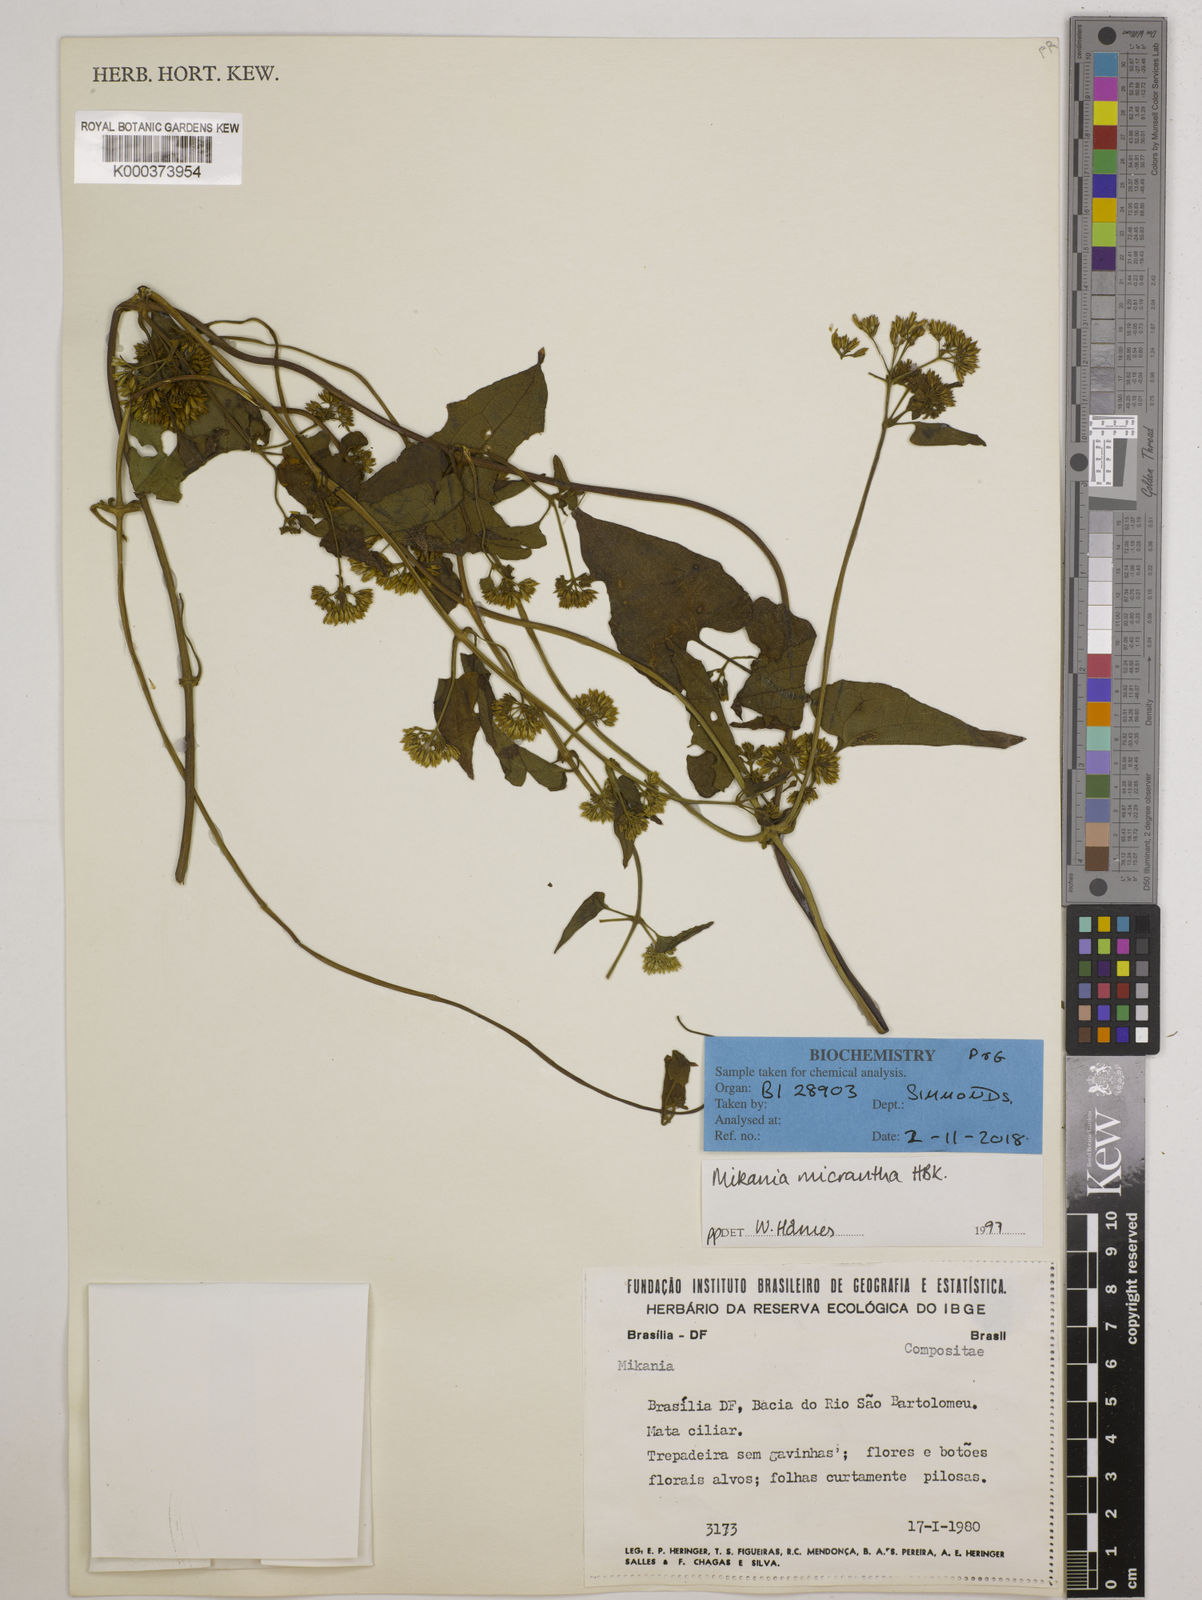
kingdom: Plantae
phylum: Tracheophyta
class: Magnoliopsida
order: Asterales
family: Asteraceae
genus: Mikania
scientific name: Mikania
